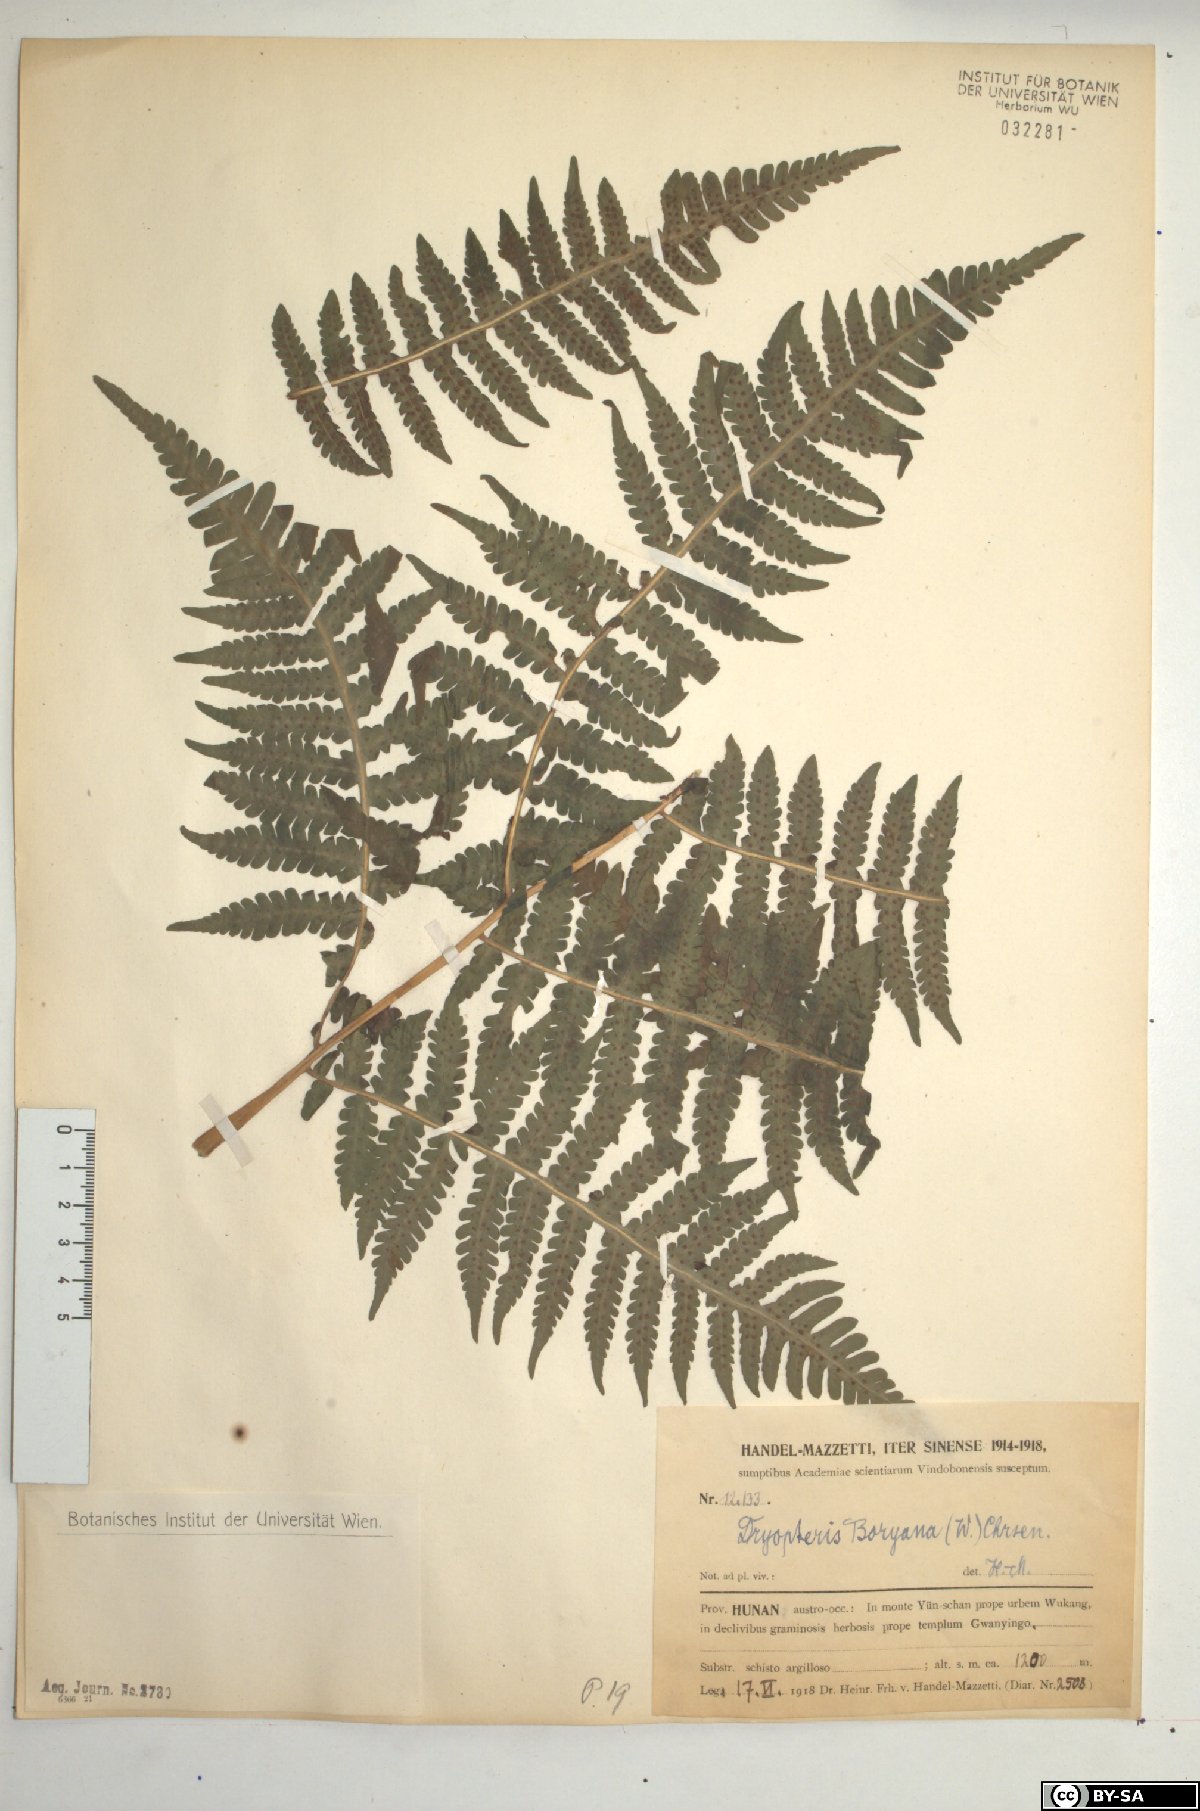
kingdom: Plantae
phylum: Tracheophyta
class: Polypodiopsida
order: Polypodiales
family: Athyriaceae
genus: Deparia
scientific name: Deparia boryana
